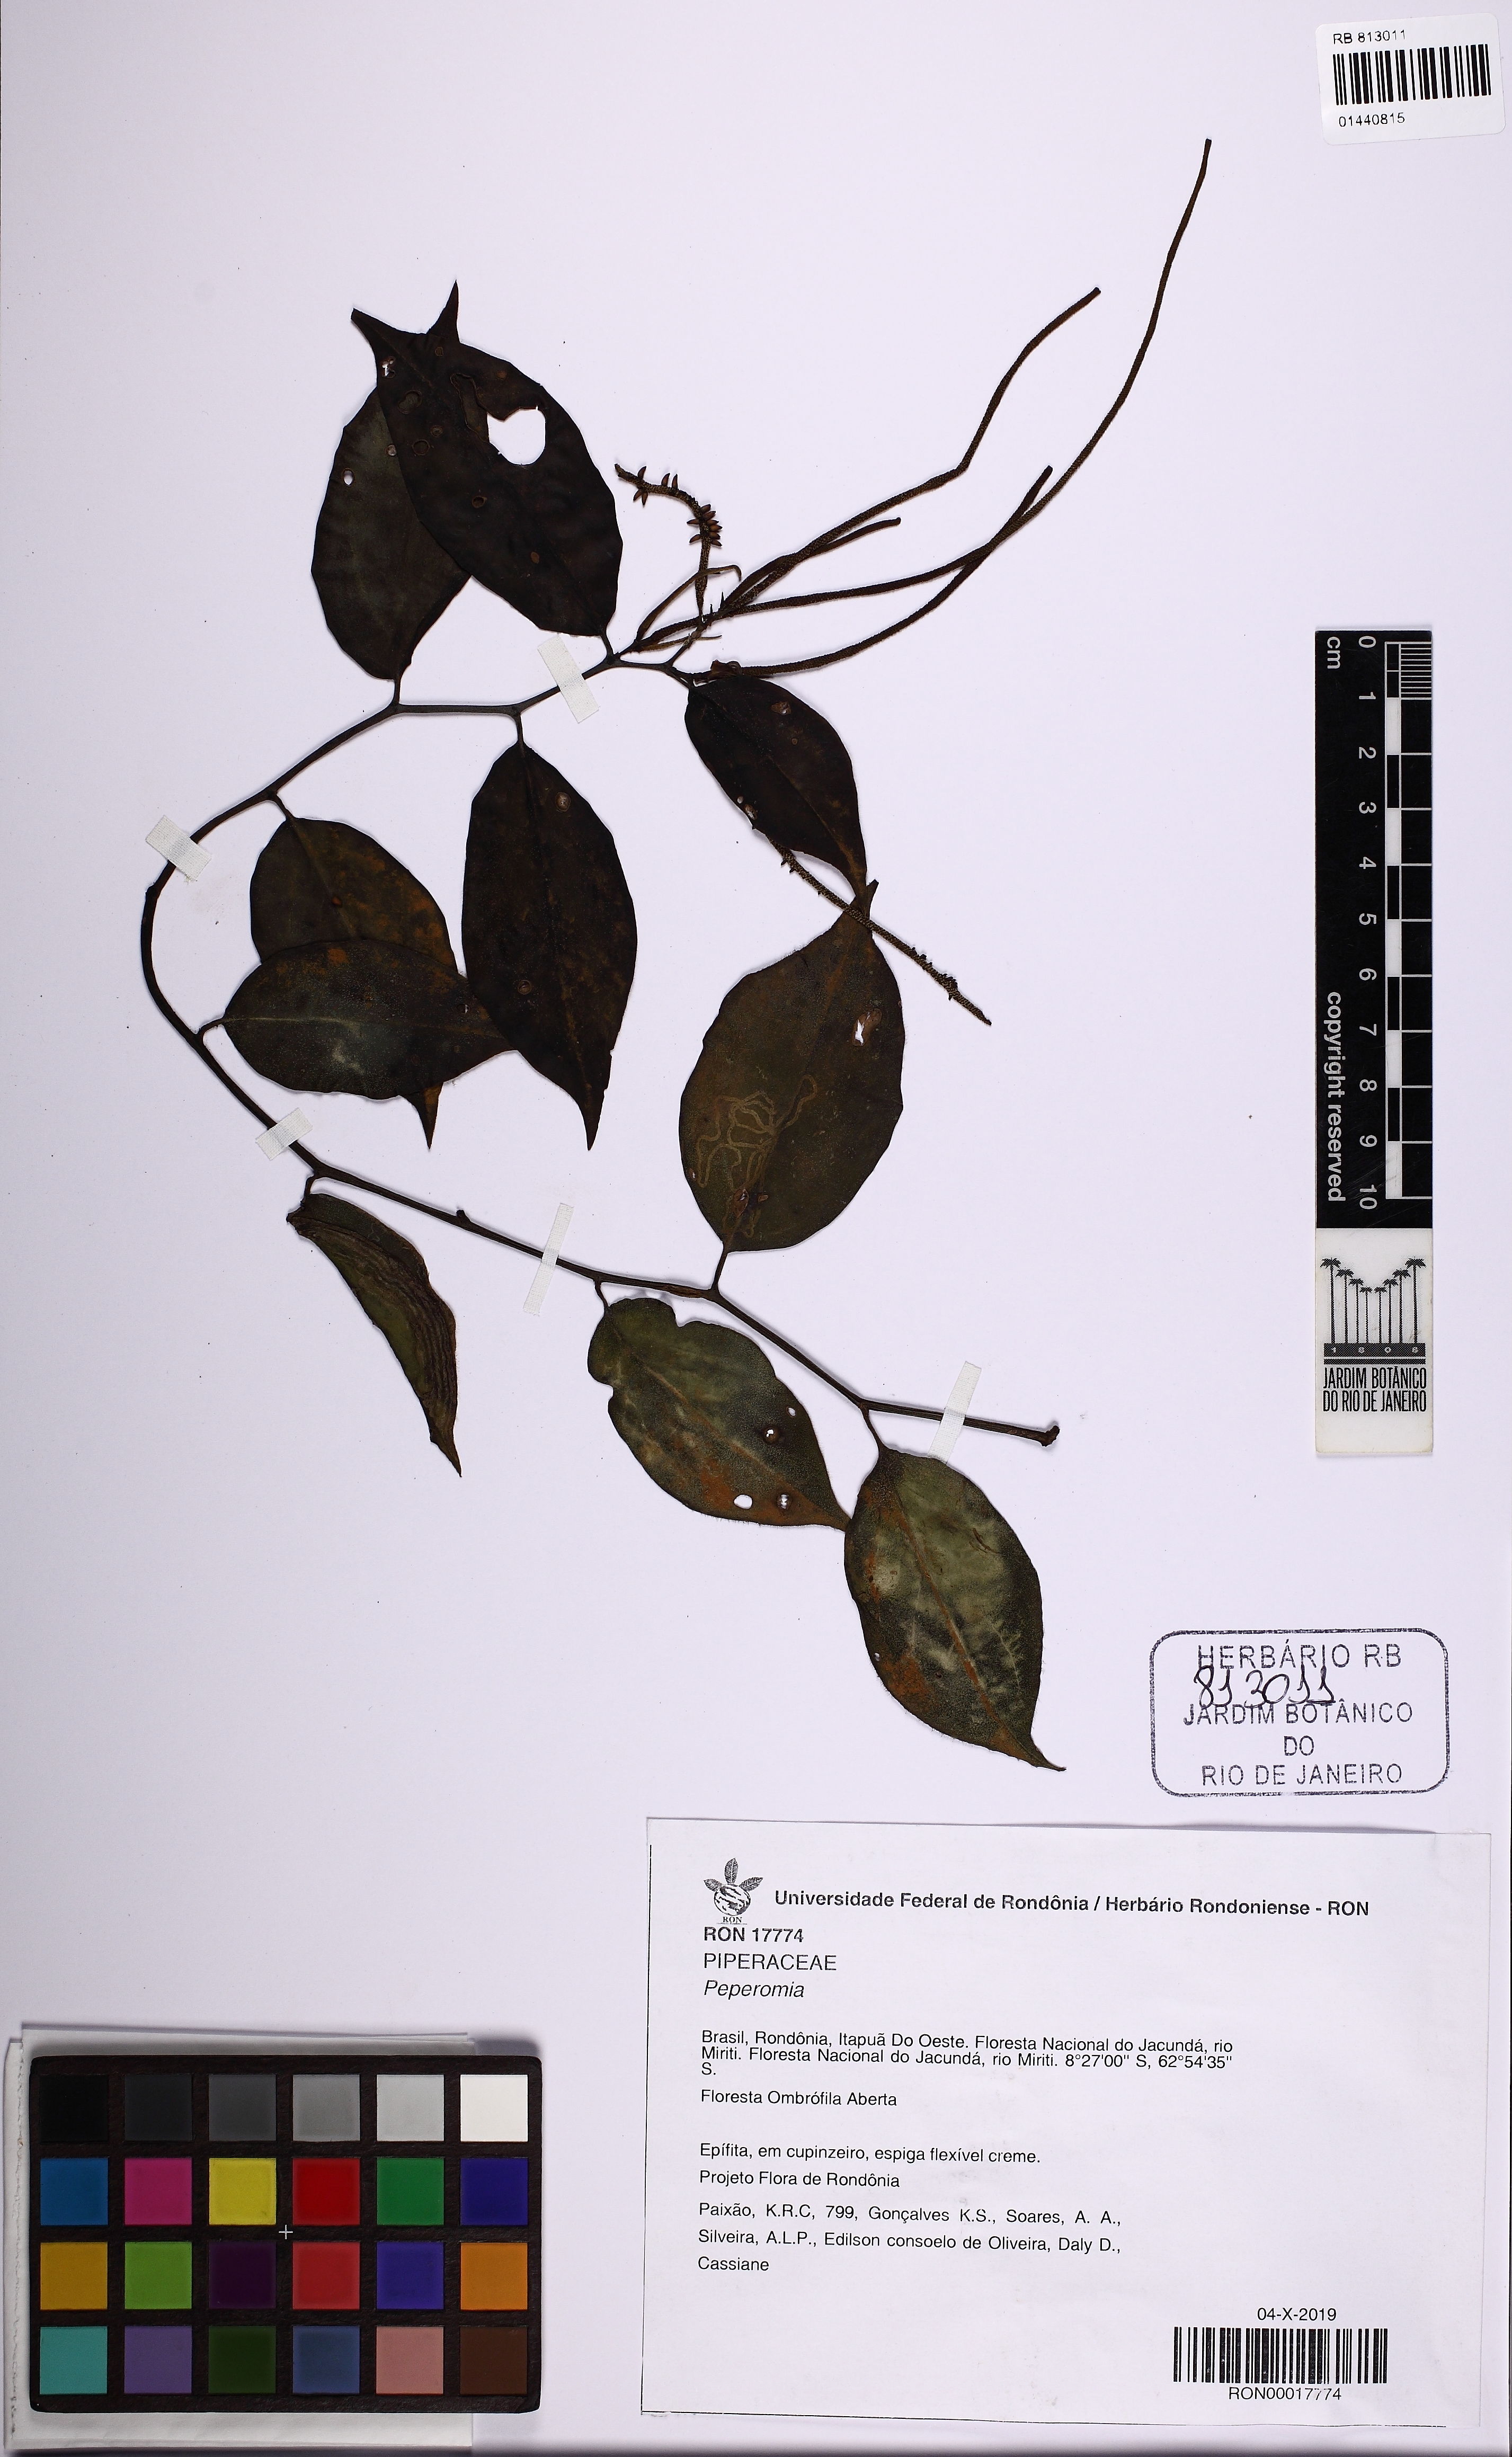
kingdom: Plantae
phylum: Tracheophyta
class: Magnoliopsida
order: Piperales
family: Piperaceae
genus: Peperomia
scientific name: Peperomia macrostachyos
